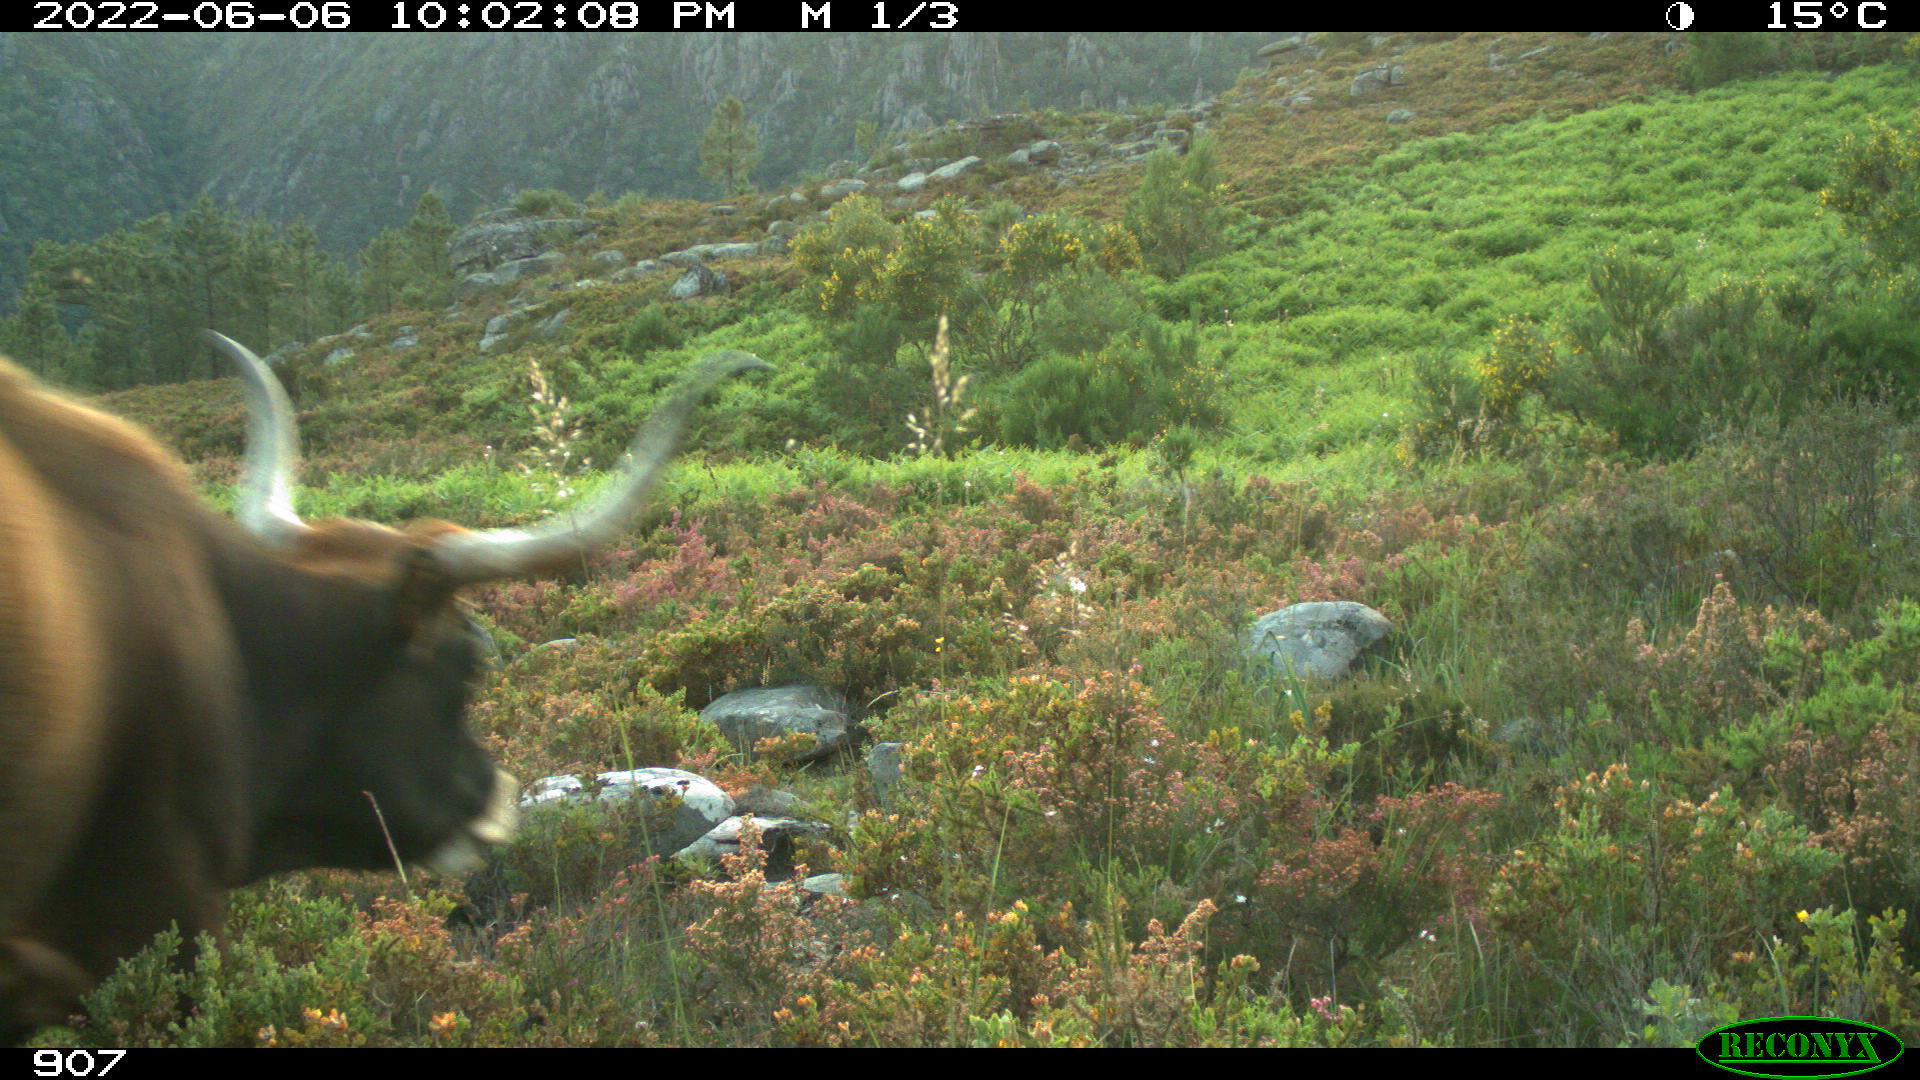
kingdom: Animalia
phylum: Chordata
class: Mammalia
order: Artiodactyla
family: Bovidae
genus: Bos
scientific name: Bos taurus
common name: Domesticated cattle
